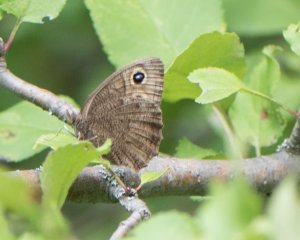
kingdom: Animalia
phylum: Arthropoda
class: Insecta
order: Lepidoptera
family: Nymphalidae
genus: Cercyonis
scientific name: Cercyonis pegala
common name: Common Wood-Nymph
